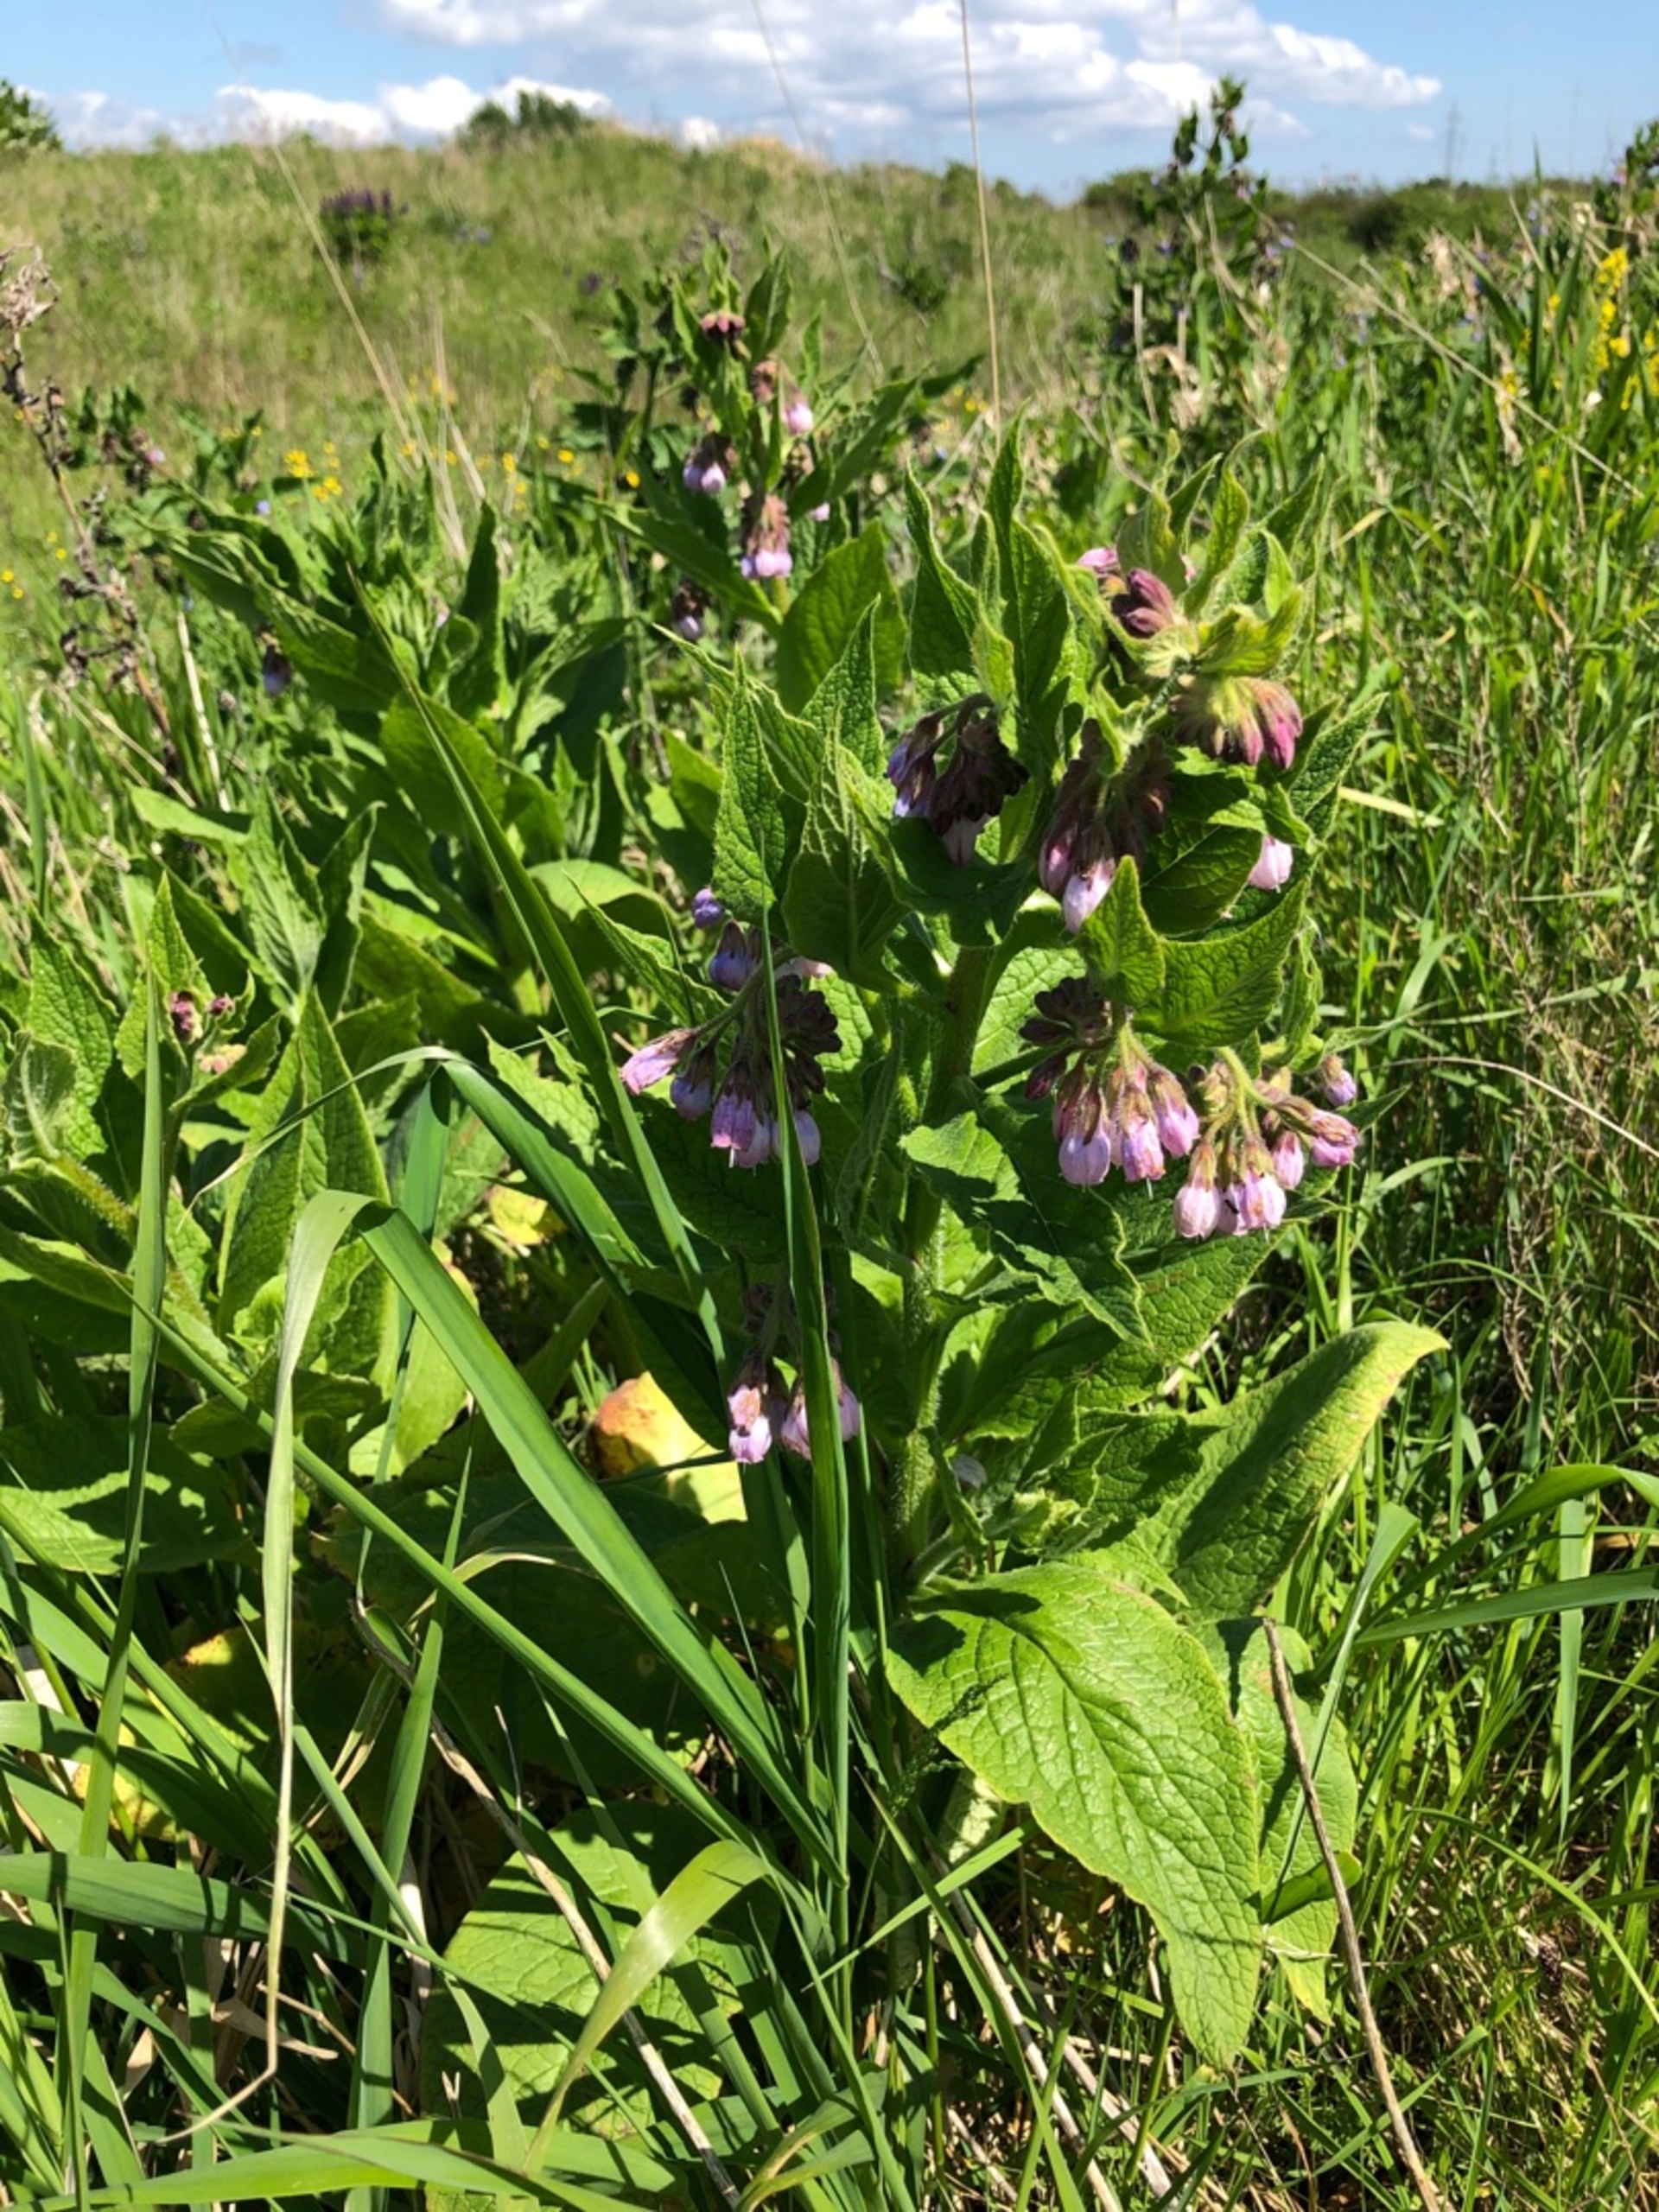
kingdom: Plantae
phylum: Tracheophyta
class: Magnoliopsida
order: Boraginales
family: Boraginaceae
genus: Symphytum
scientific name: Symphytum uplandicum
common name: Foder-kulsukker
